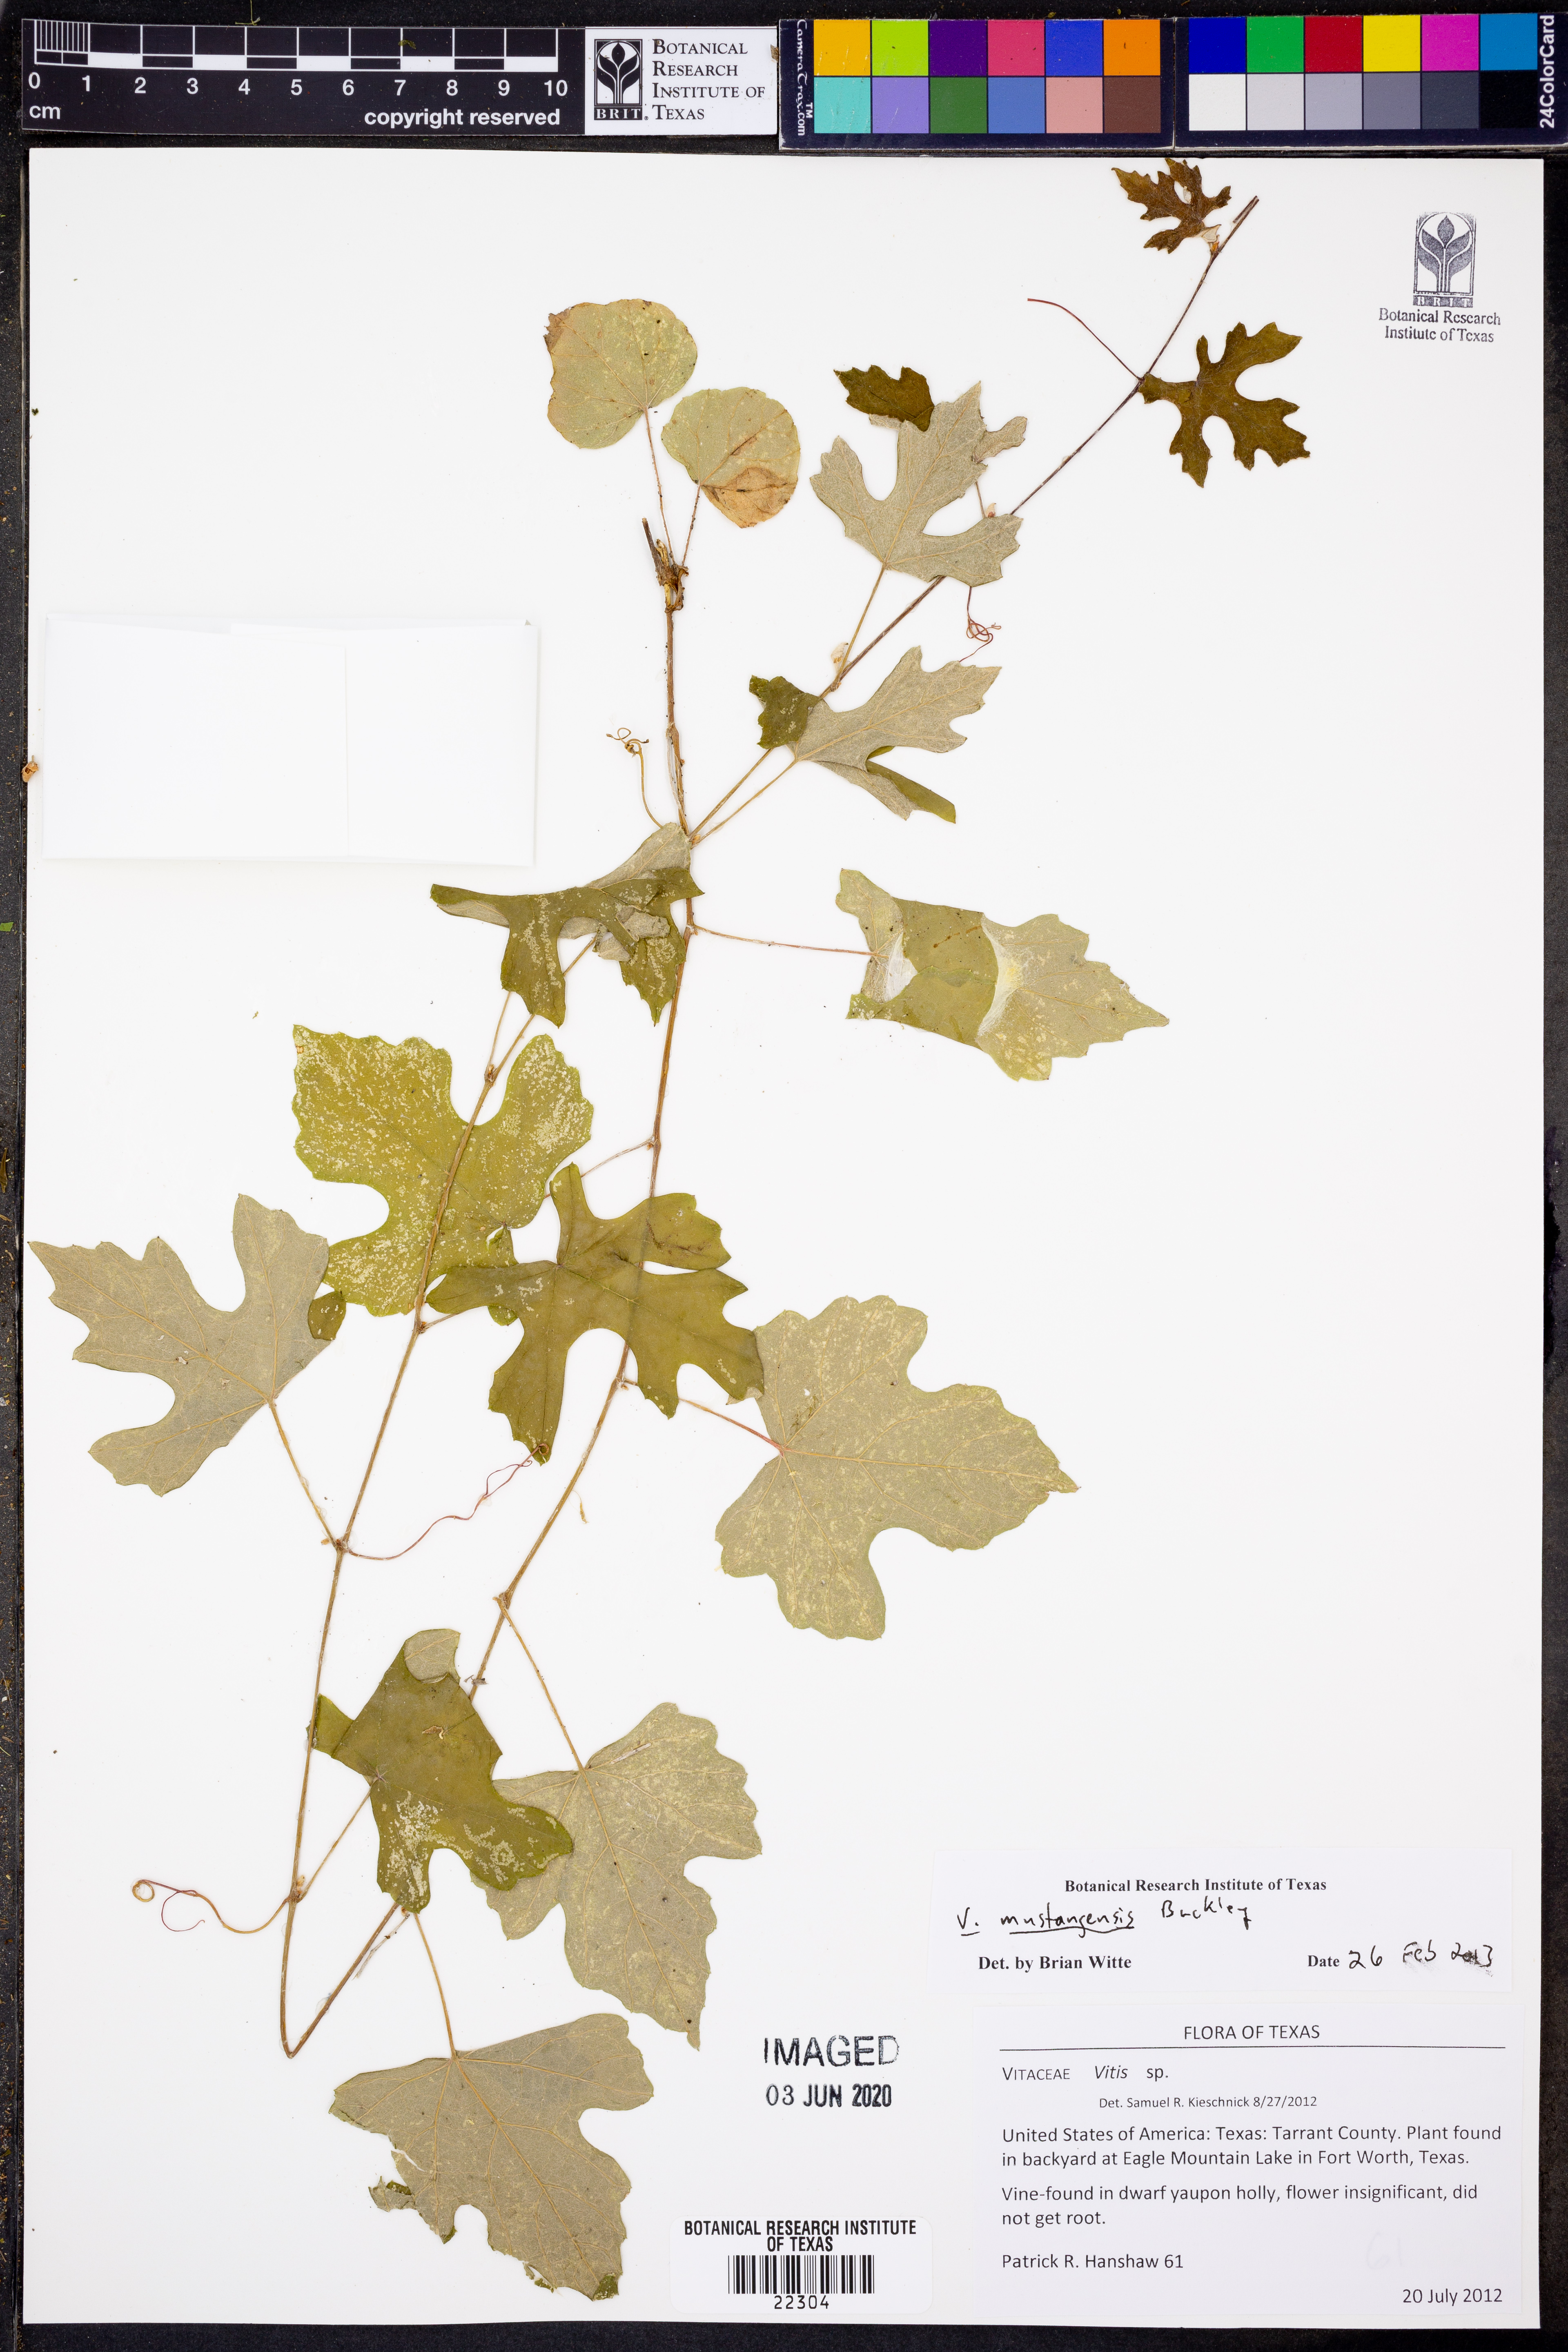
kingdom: Plantae
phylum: Tracheophyta
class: Magnoliopsida
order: Vitales
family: Vitaceae
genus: Vitis
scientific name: Vitis mustangensis
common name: Mustang grape
